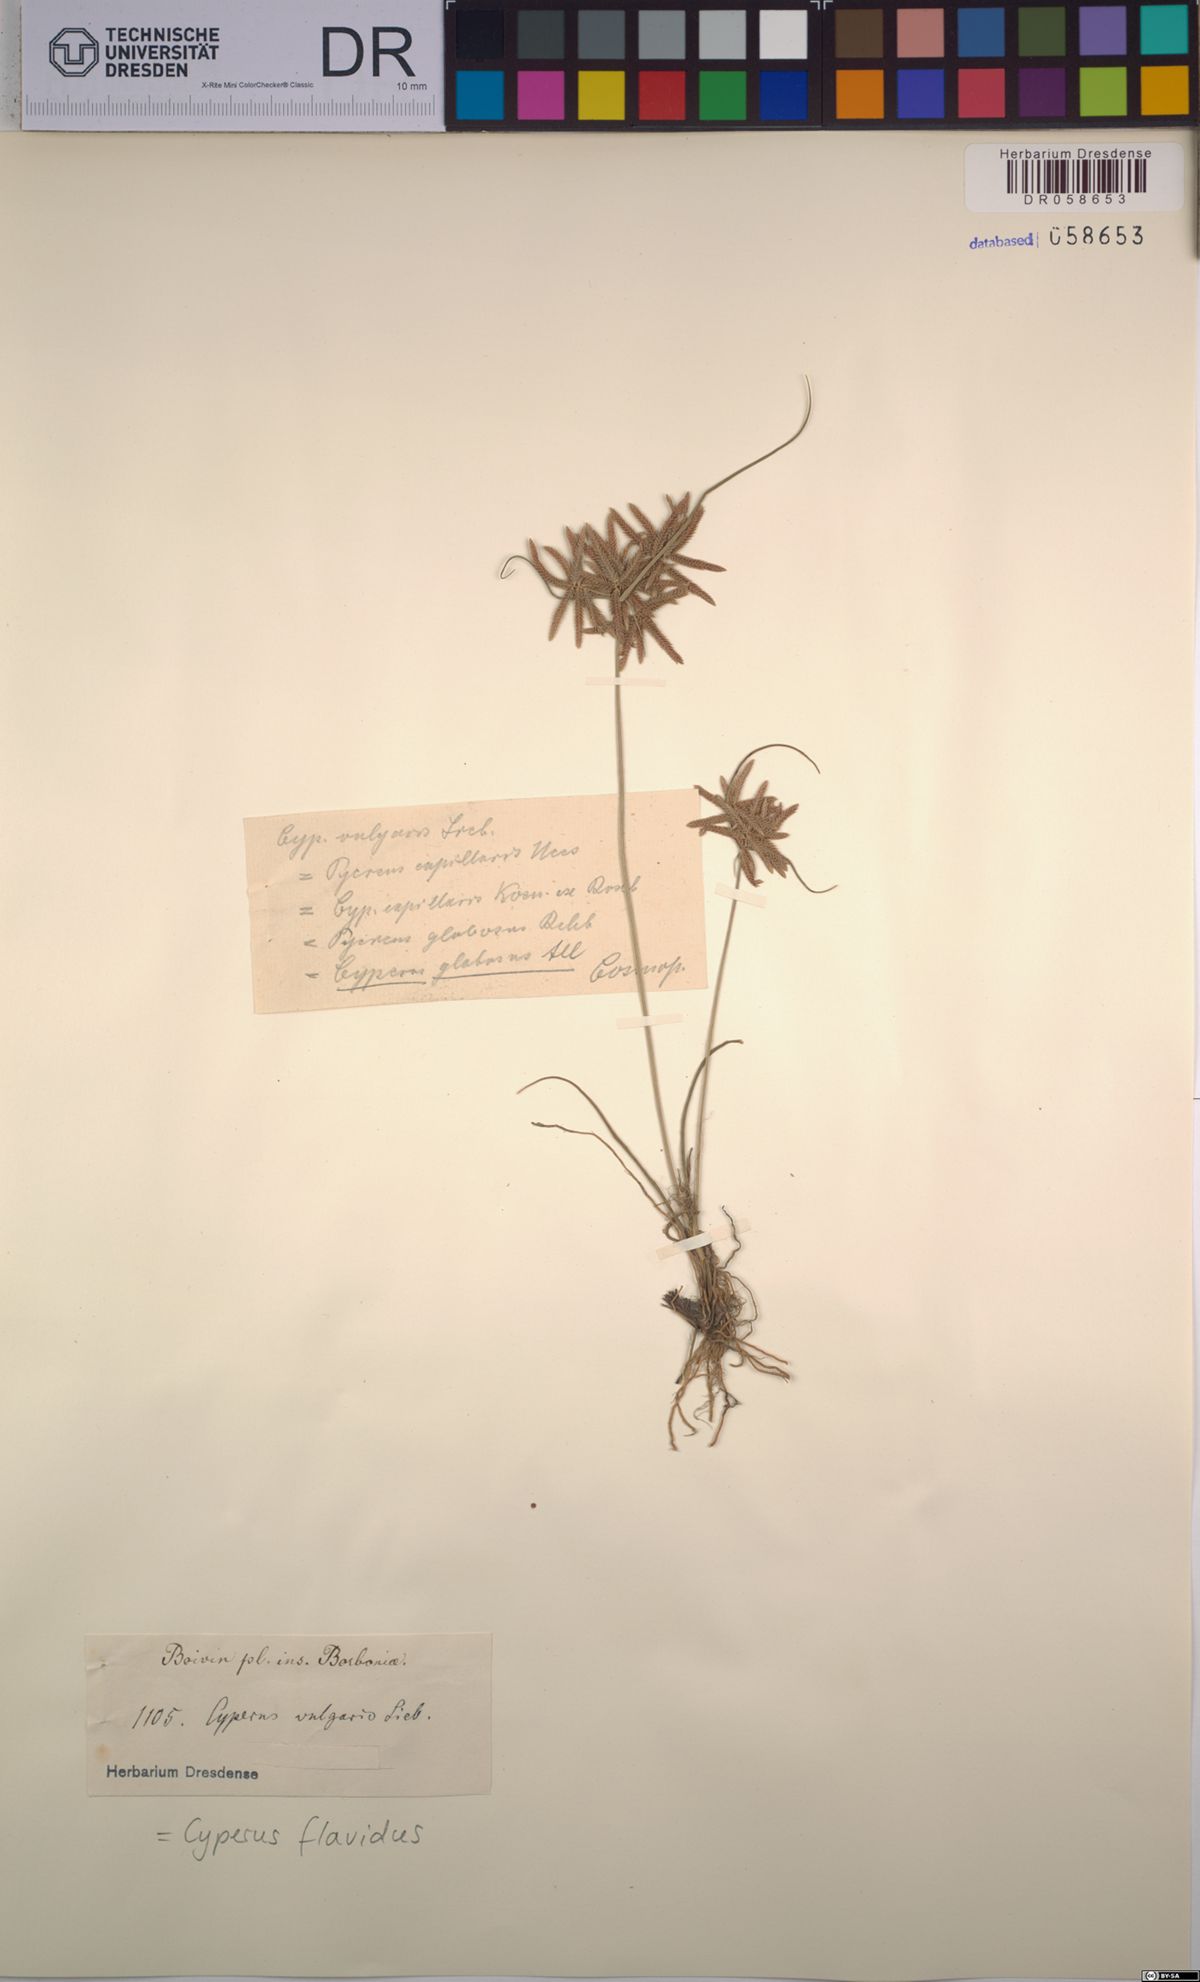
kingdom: Plantae
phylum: Tracheophyta
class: Liliopsida
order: Poales
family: Cyperaceae
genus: Cyperus
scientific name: Cyperus flavidus
